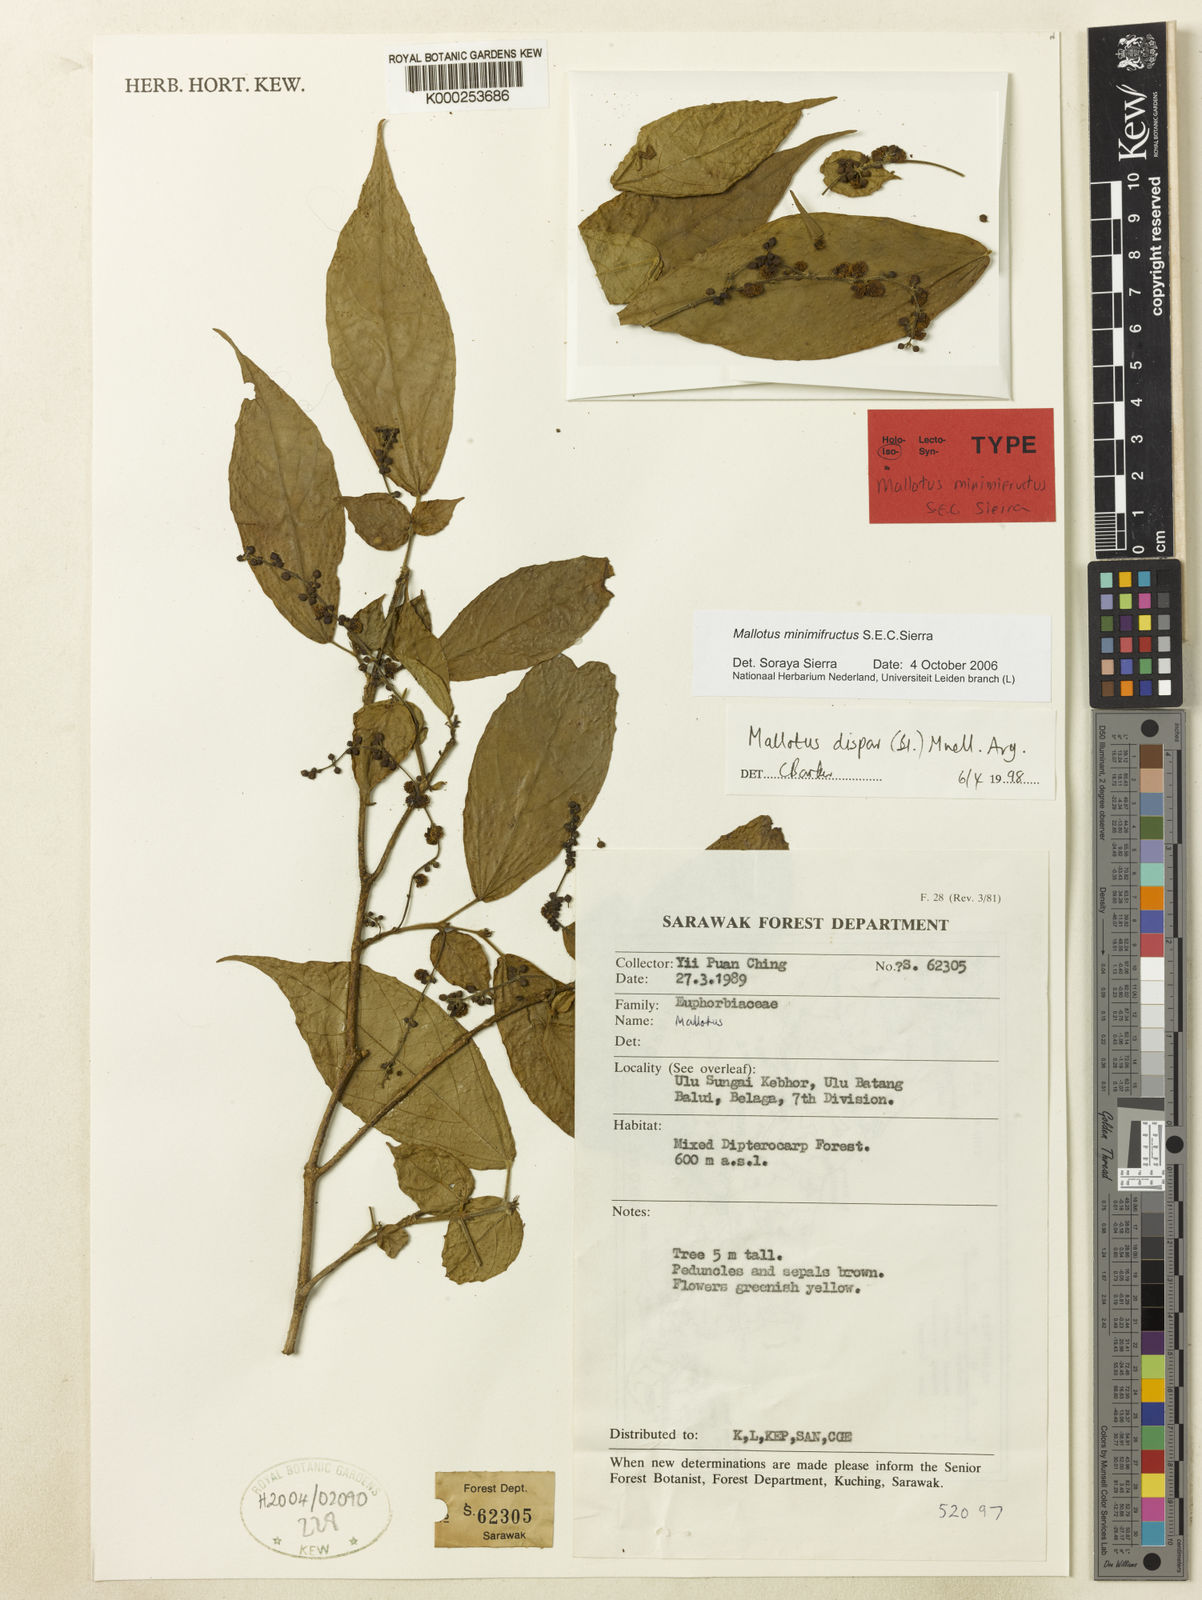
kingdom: Plantae
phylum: Tracheophyta
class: Magnoliopsida
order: Malpighiales
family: Euphorbiaceae
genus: Mallotus
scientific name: Mallotus minimifructus
